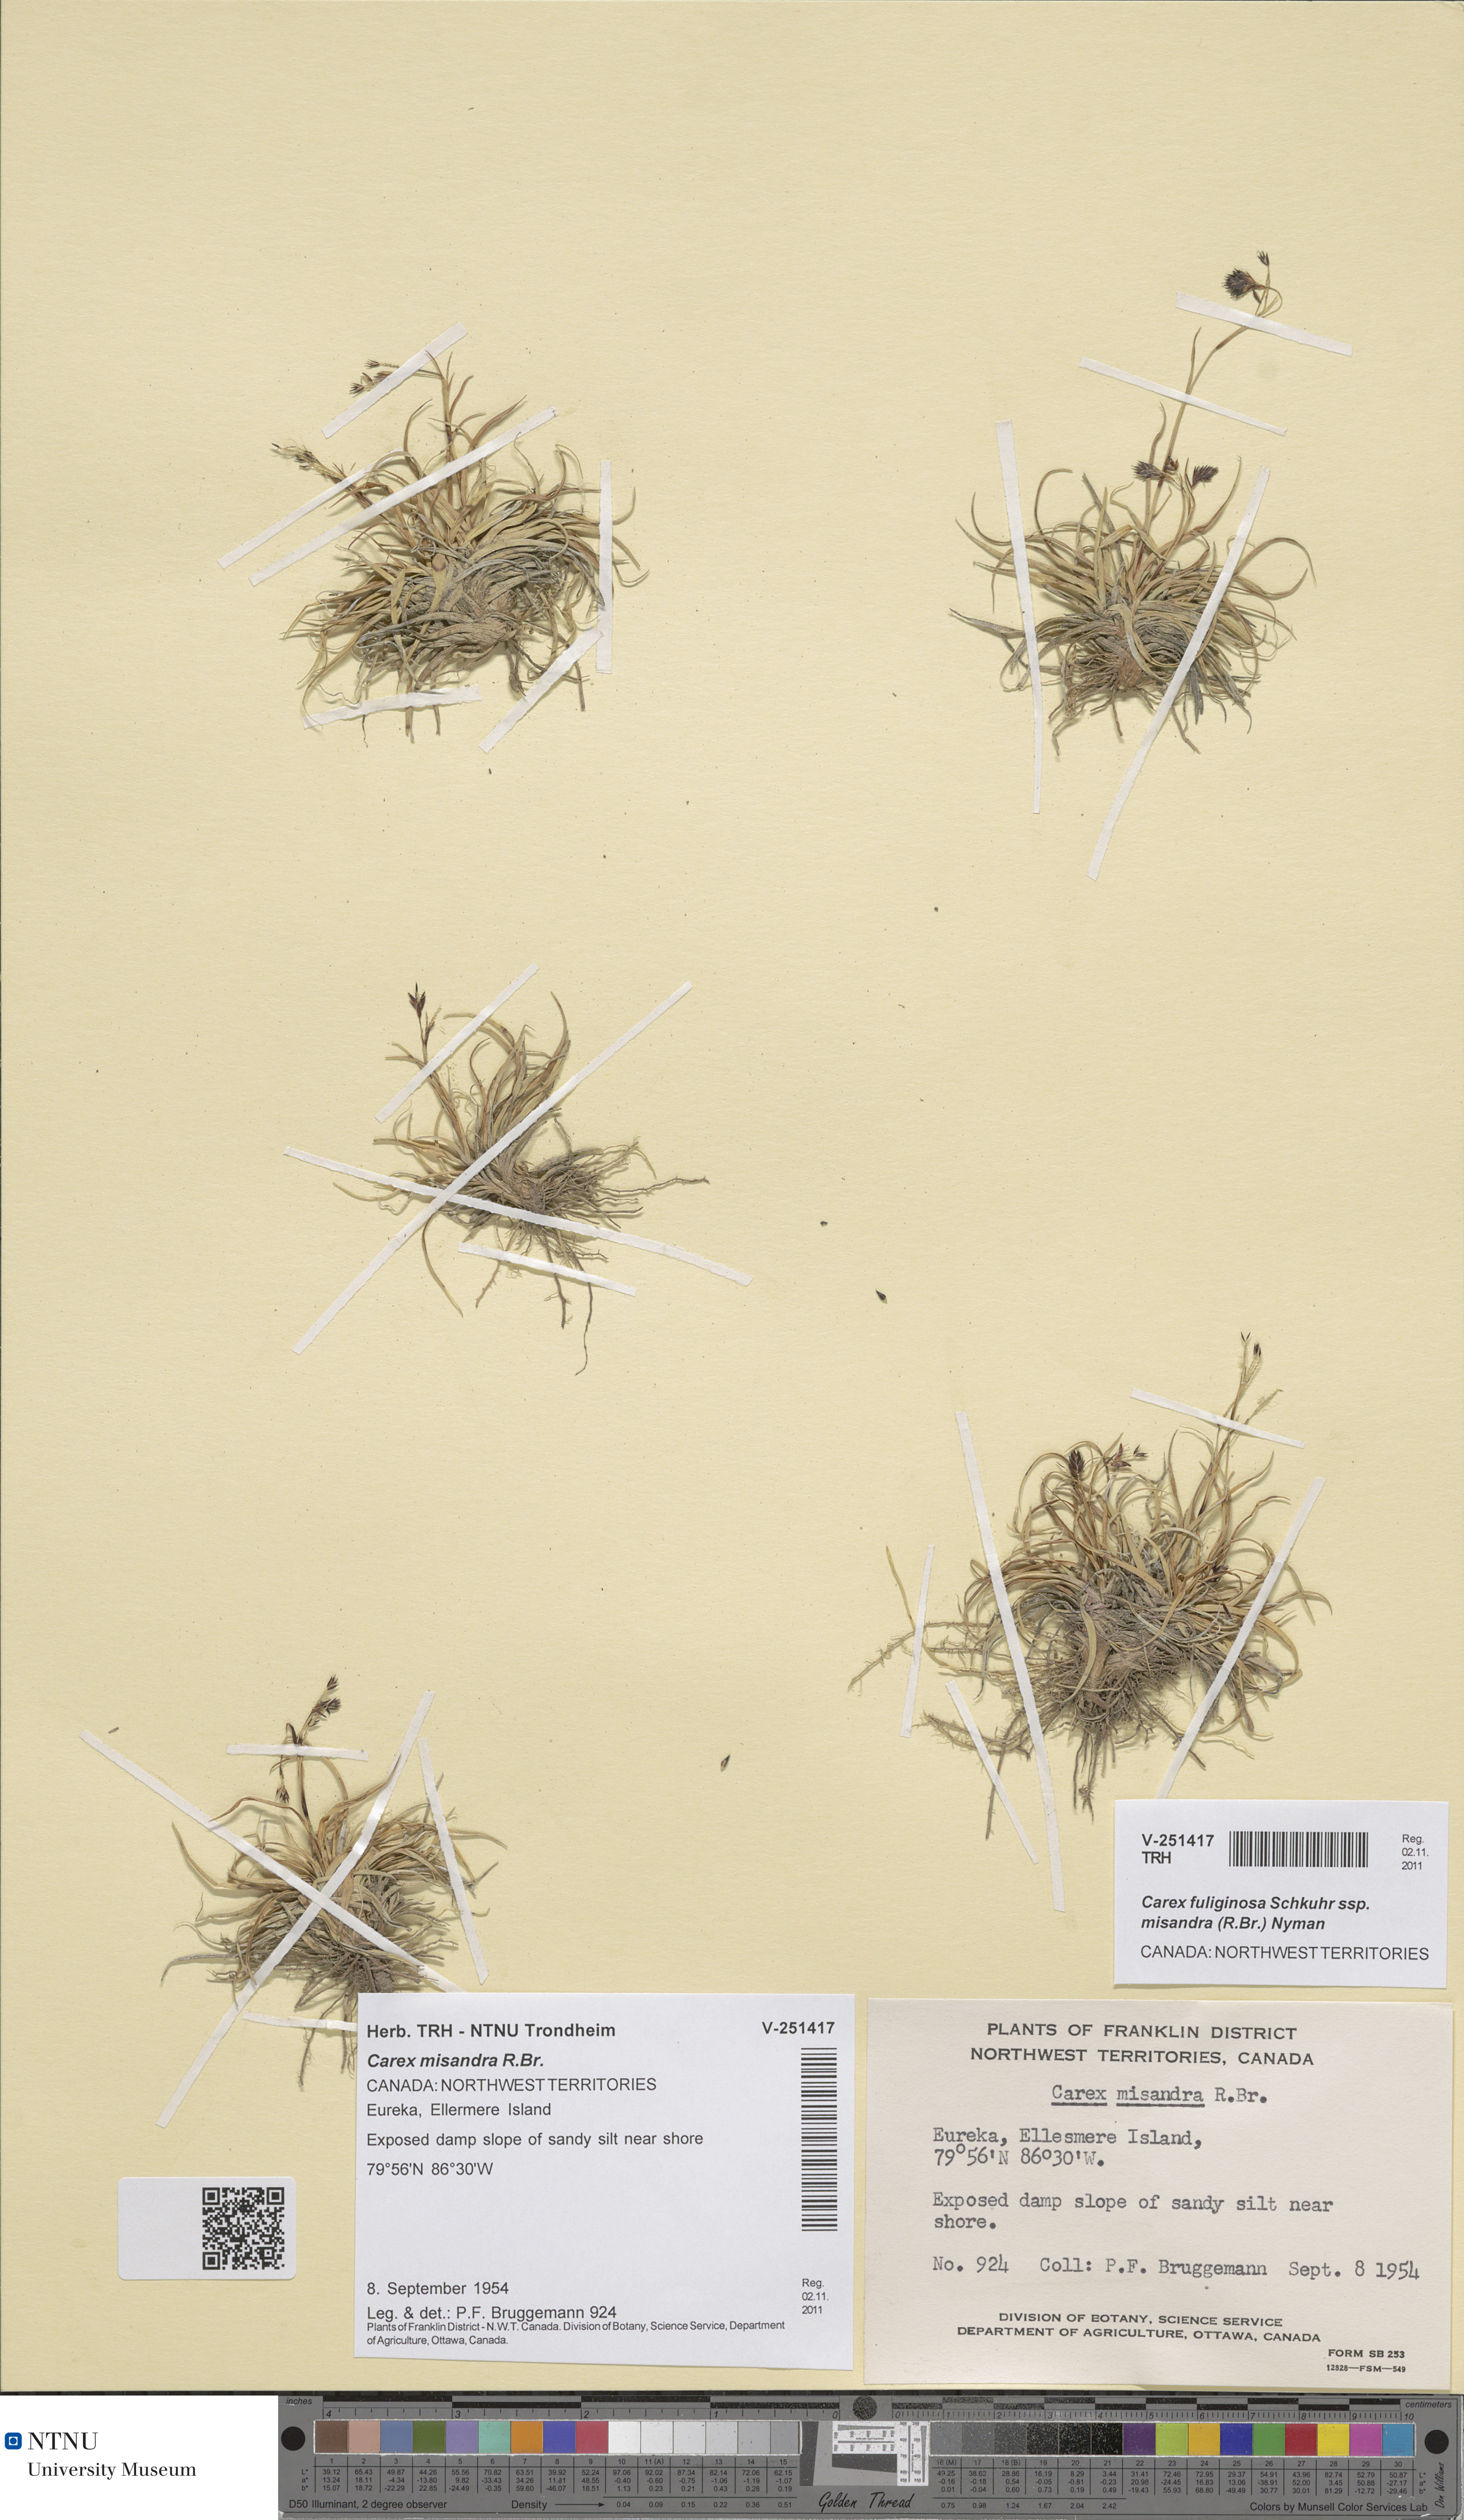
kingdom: Plantae
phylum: Tracheophyta
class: Liliopsida
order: Poales
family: Cyperaceae
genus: Carex
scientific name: Carex fuliginosa
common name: Few-flowered sedge
